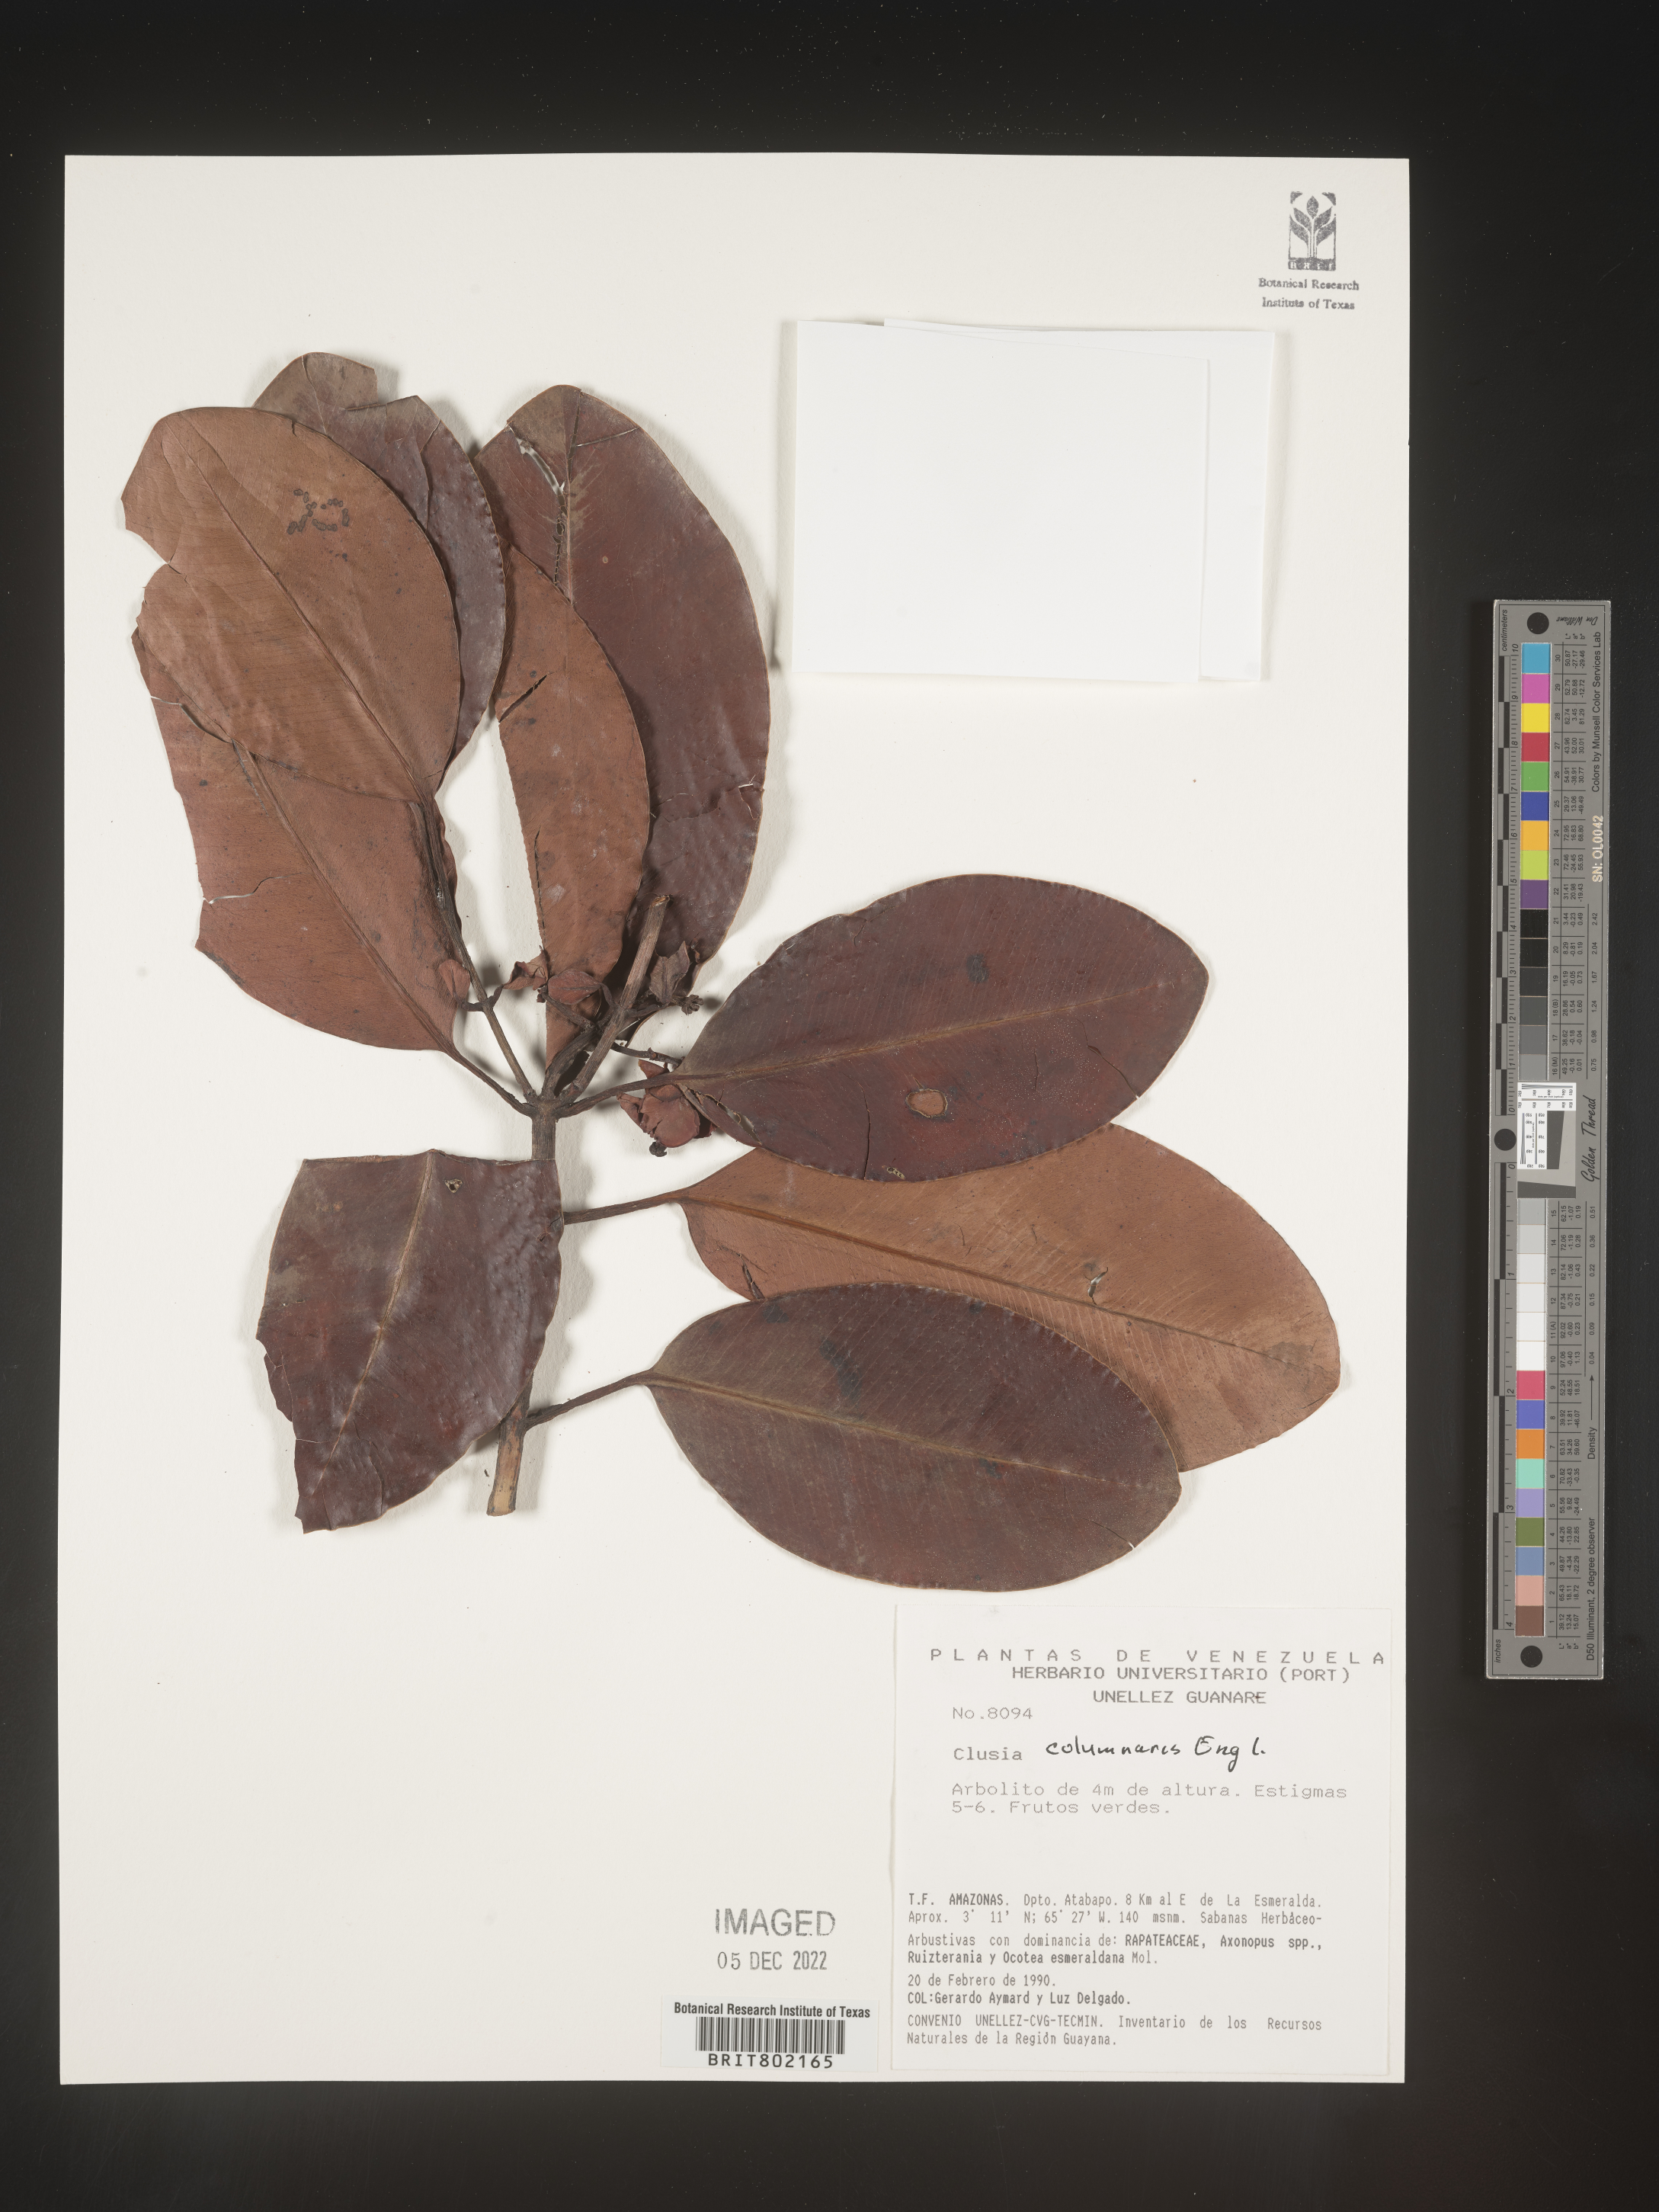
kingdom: Plantae
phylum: Tracheophyta
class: Magnoliopsida
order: Malpighiales
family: Clusiaceae
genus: Clusia
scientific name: Clusia columnaris
